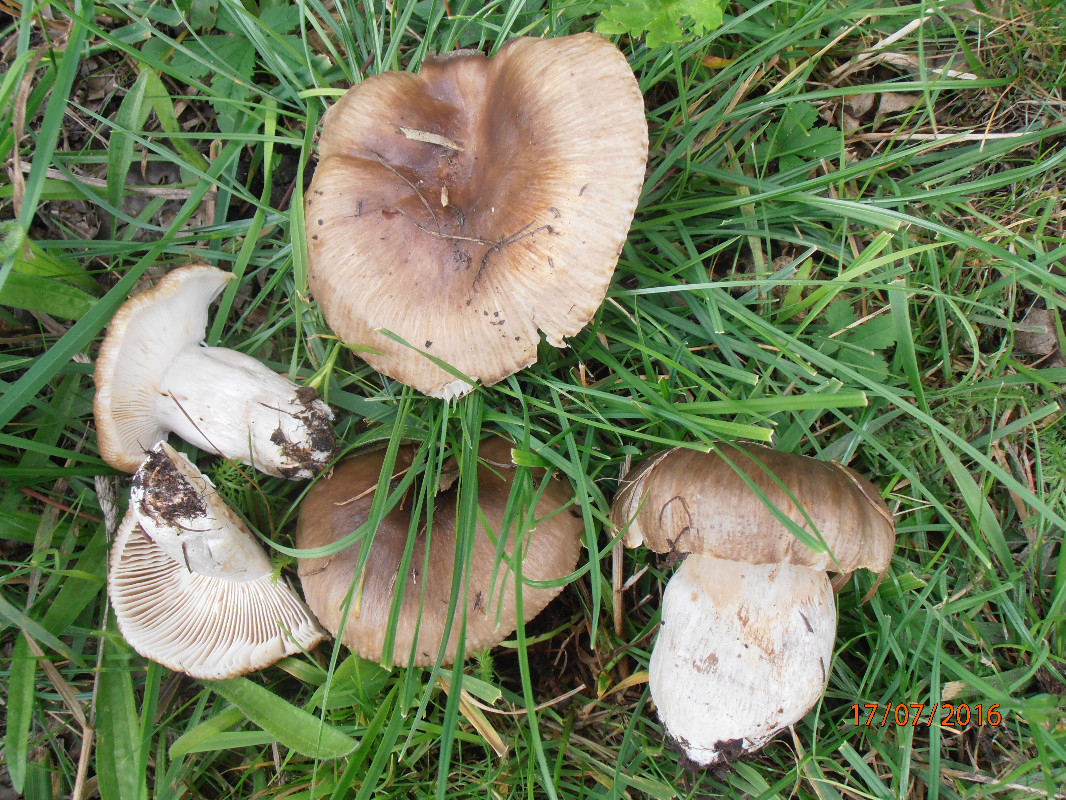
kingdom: Fungi
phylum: Basidiomycota
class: Agaricomycetes
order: Russulales
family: Russulaceae
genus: Russula
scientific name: Russula sororia
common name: brun kam-skørhat
